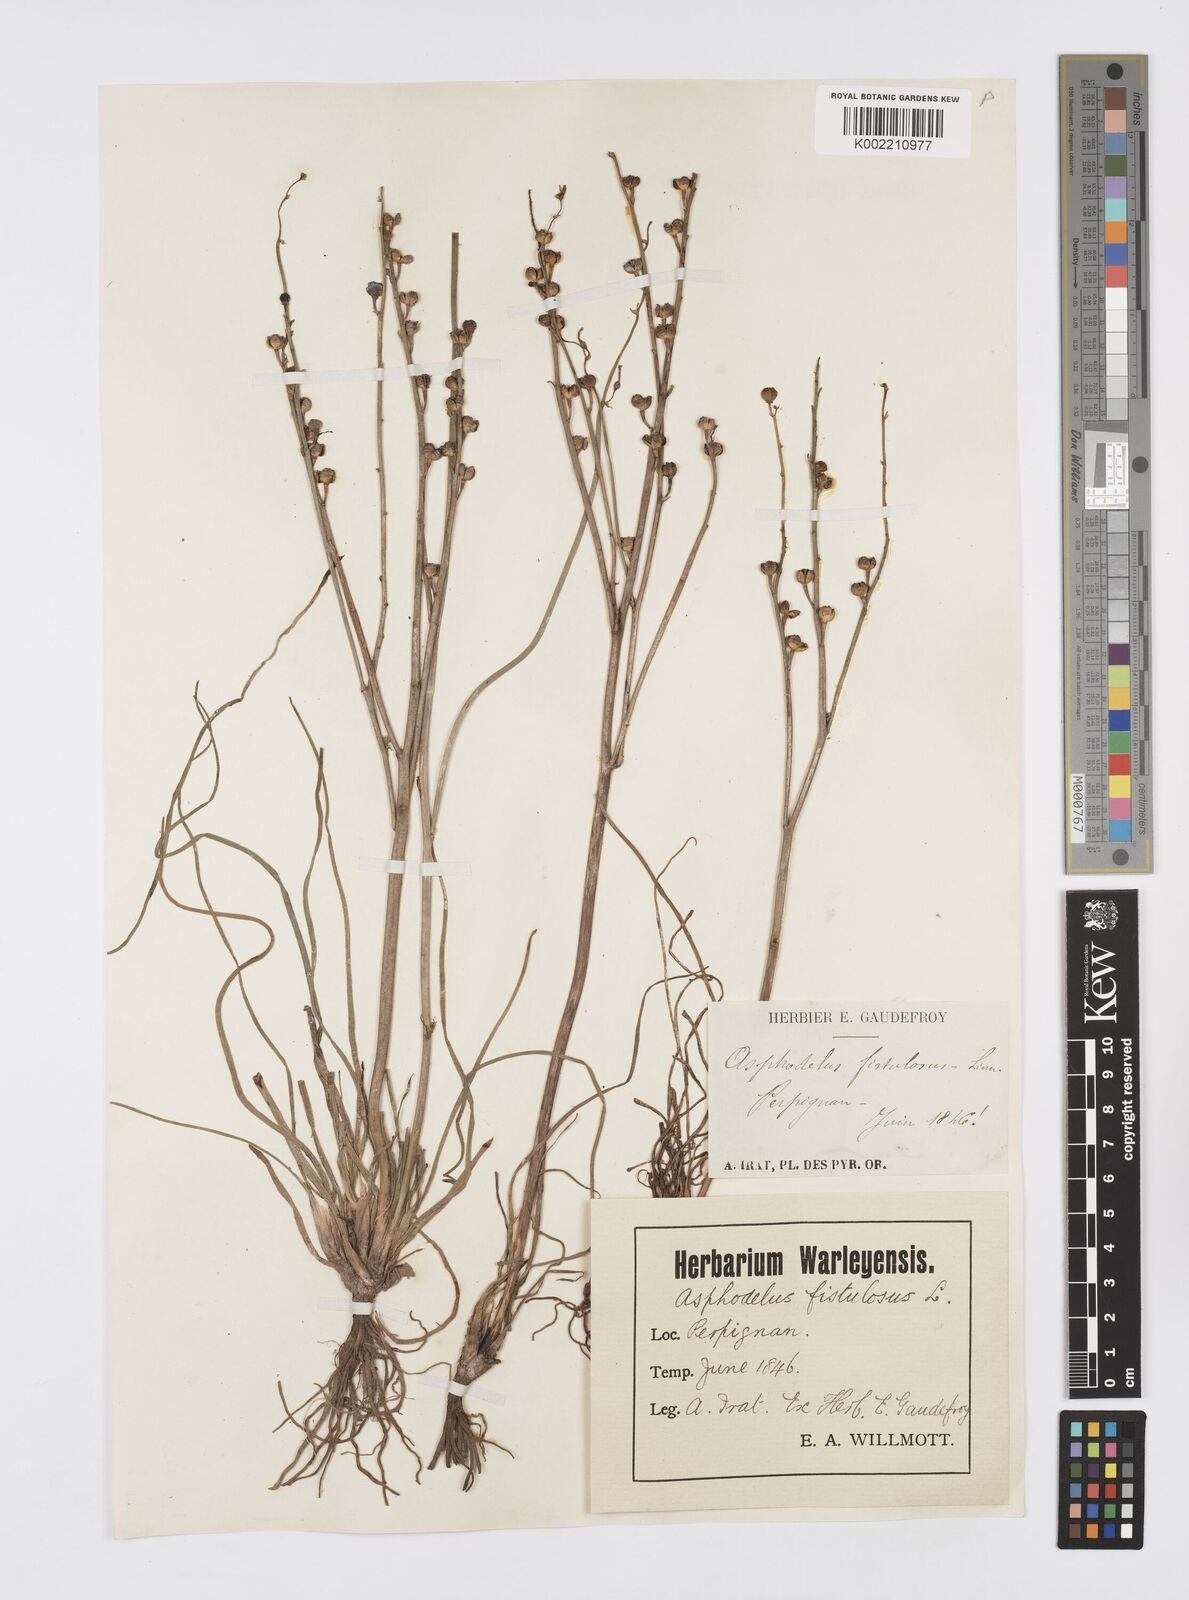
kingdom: Plantae
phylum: Tracheophyta
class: Liliopsida
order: Asparagales
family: Asphodelaceae
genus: Asphodelus
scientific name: Asphodelus fistulosus
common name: Onionweed
